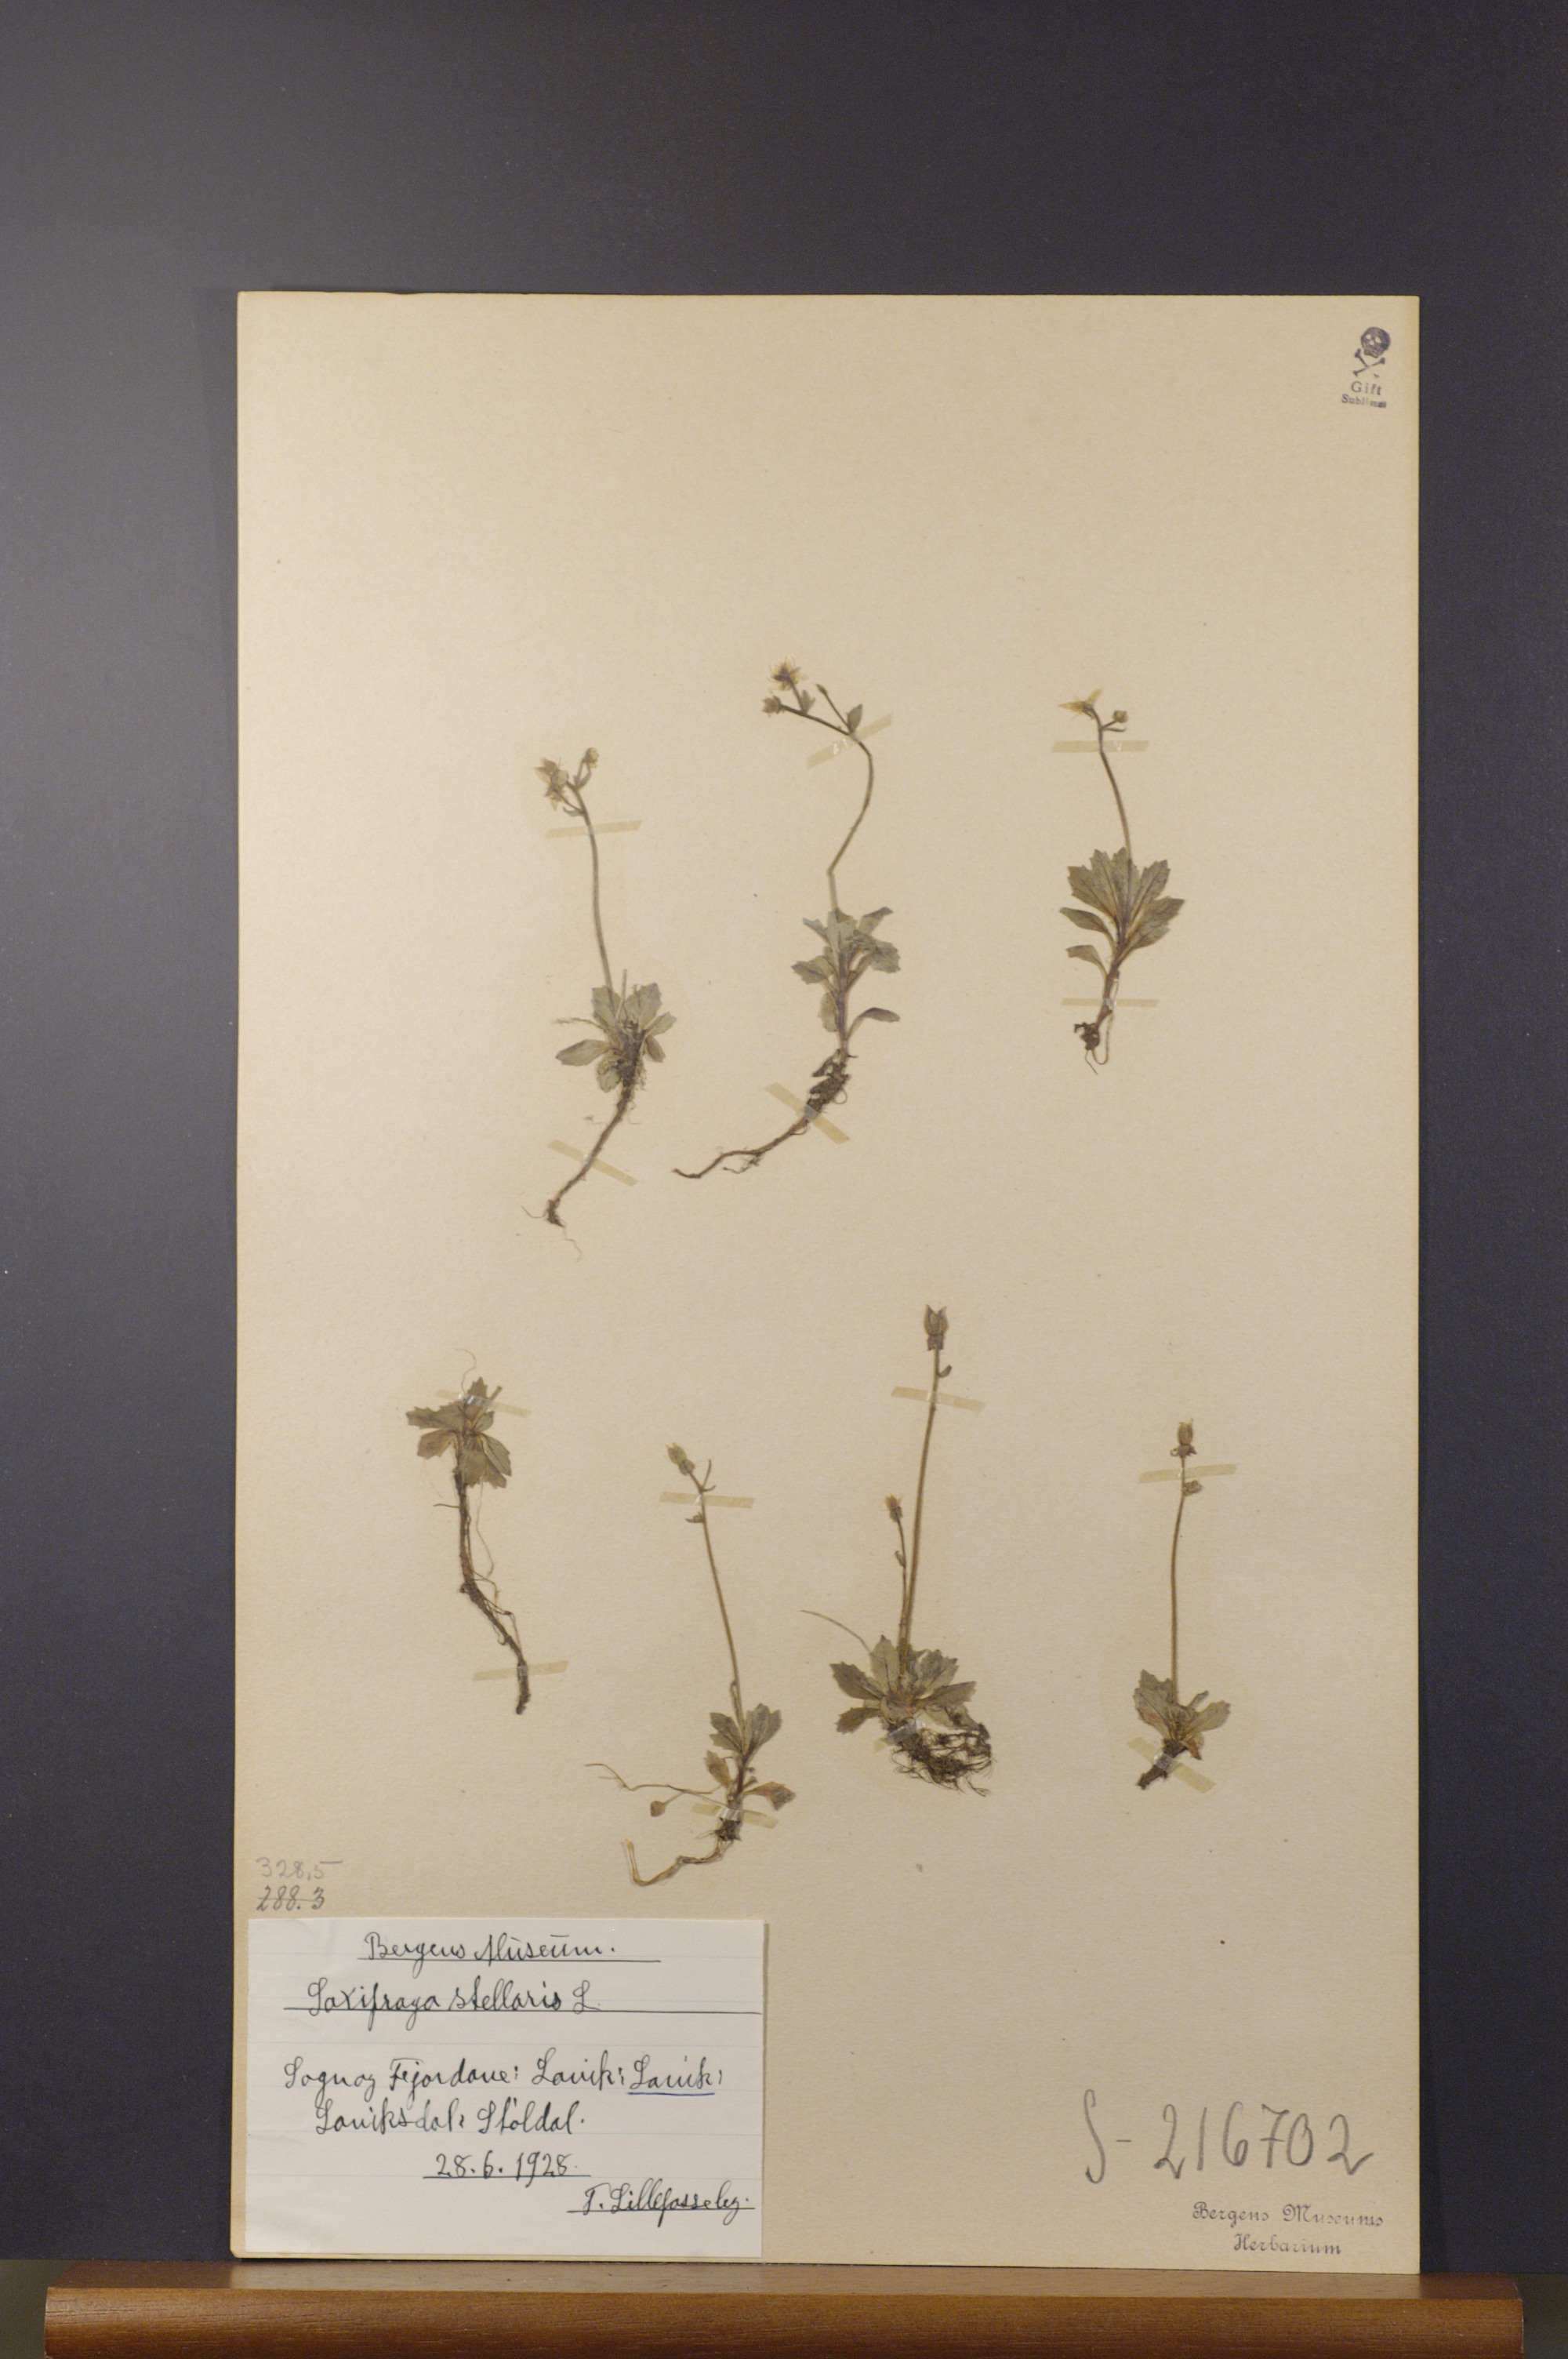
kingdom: Plantae
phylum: Tracheophyta
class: Magnoliopsida
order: Saxifragales
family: Saxifragaceae
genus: Micranthes
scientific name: Micranthes stellaris
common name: Starry saxifrage
